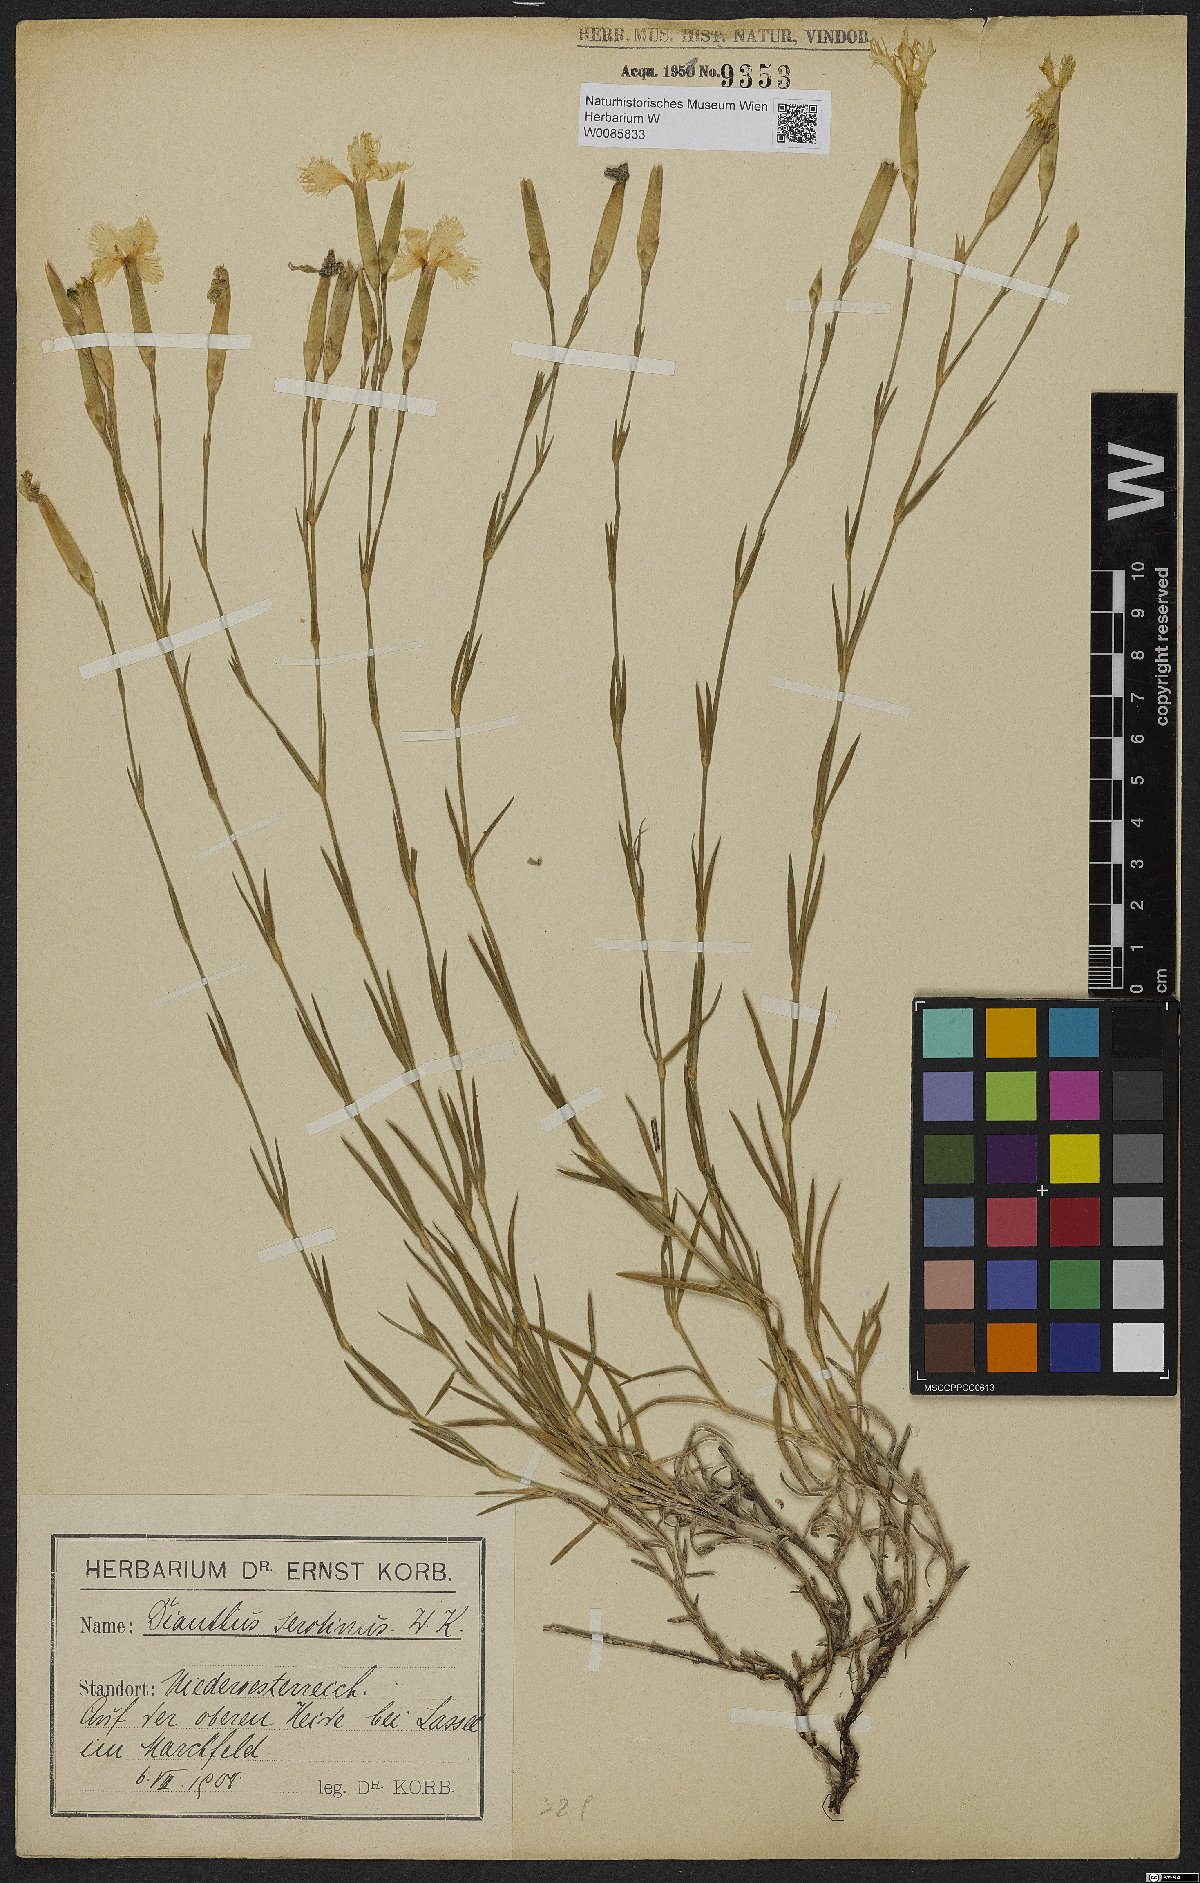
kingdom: Plantae
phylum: Tracheophyta
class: Magnoliopsida
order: Caryophyllales
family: Caryophyllaceae
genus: Dianthus
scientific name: Dianthus serotinus
